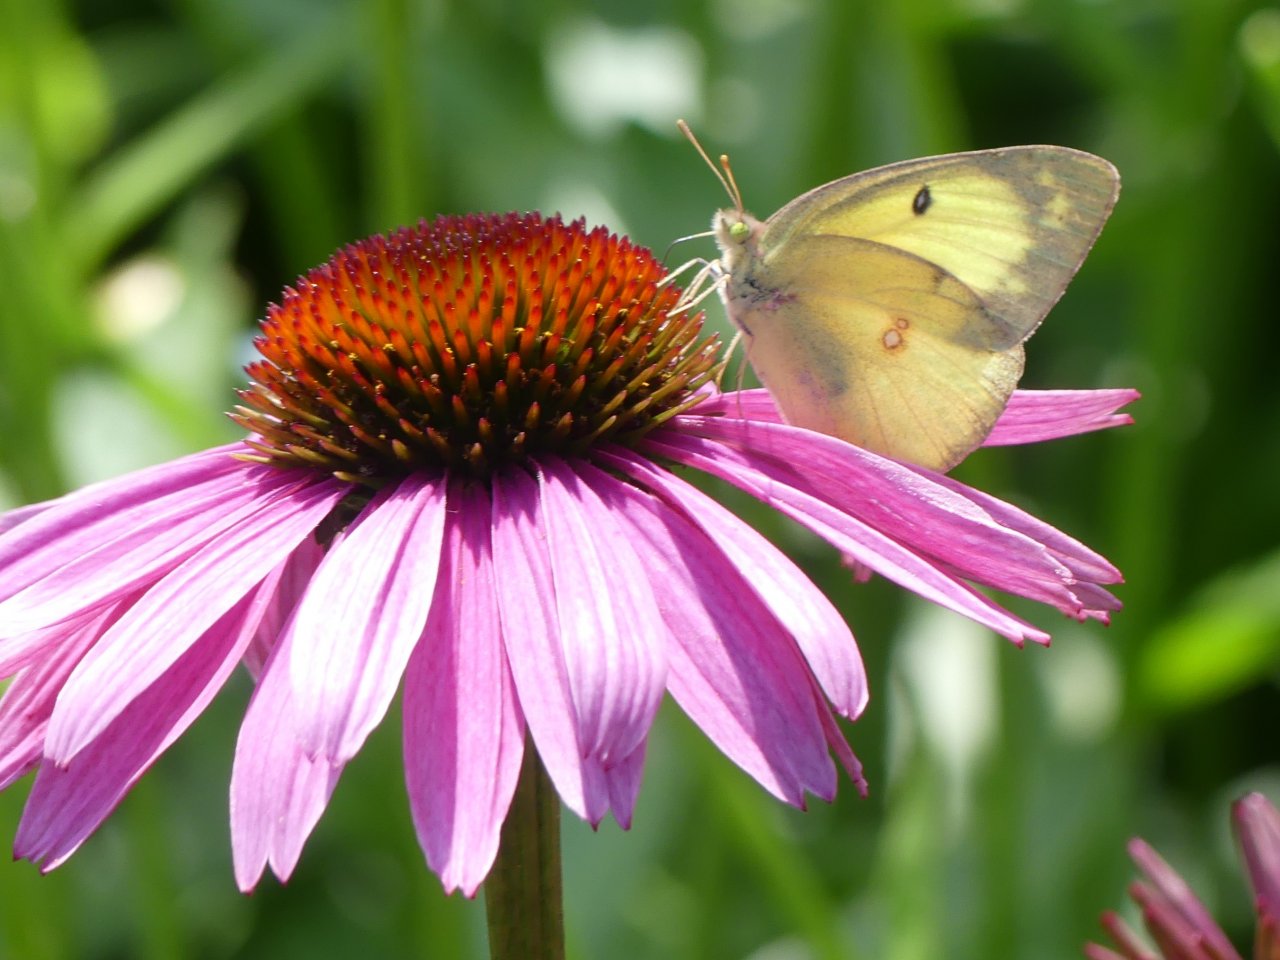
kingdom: Animalia
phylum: Arthropoda
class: Insecta
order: Lepidoptera
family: Pieridae
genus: Colias
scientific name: Colias philodice
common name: Clouded Sulphur
